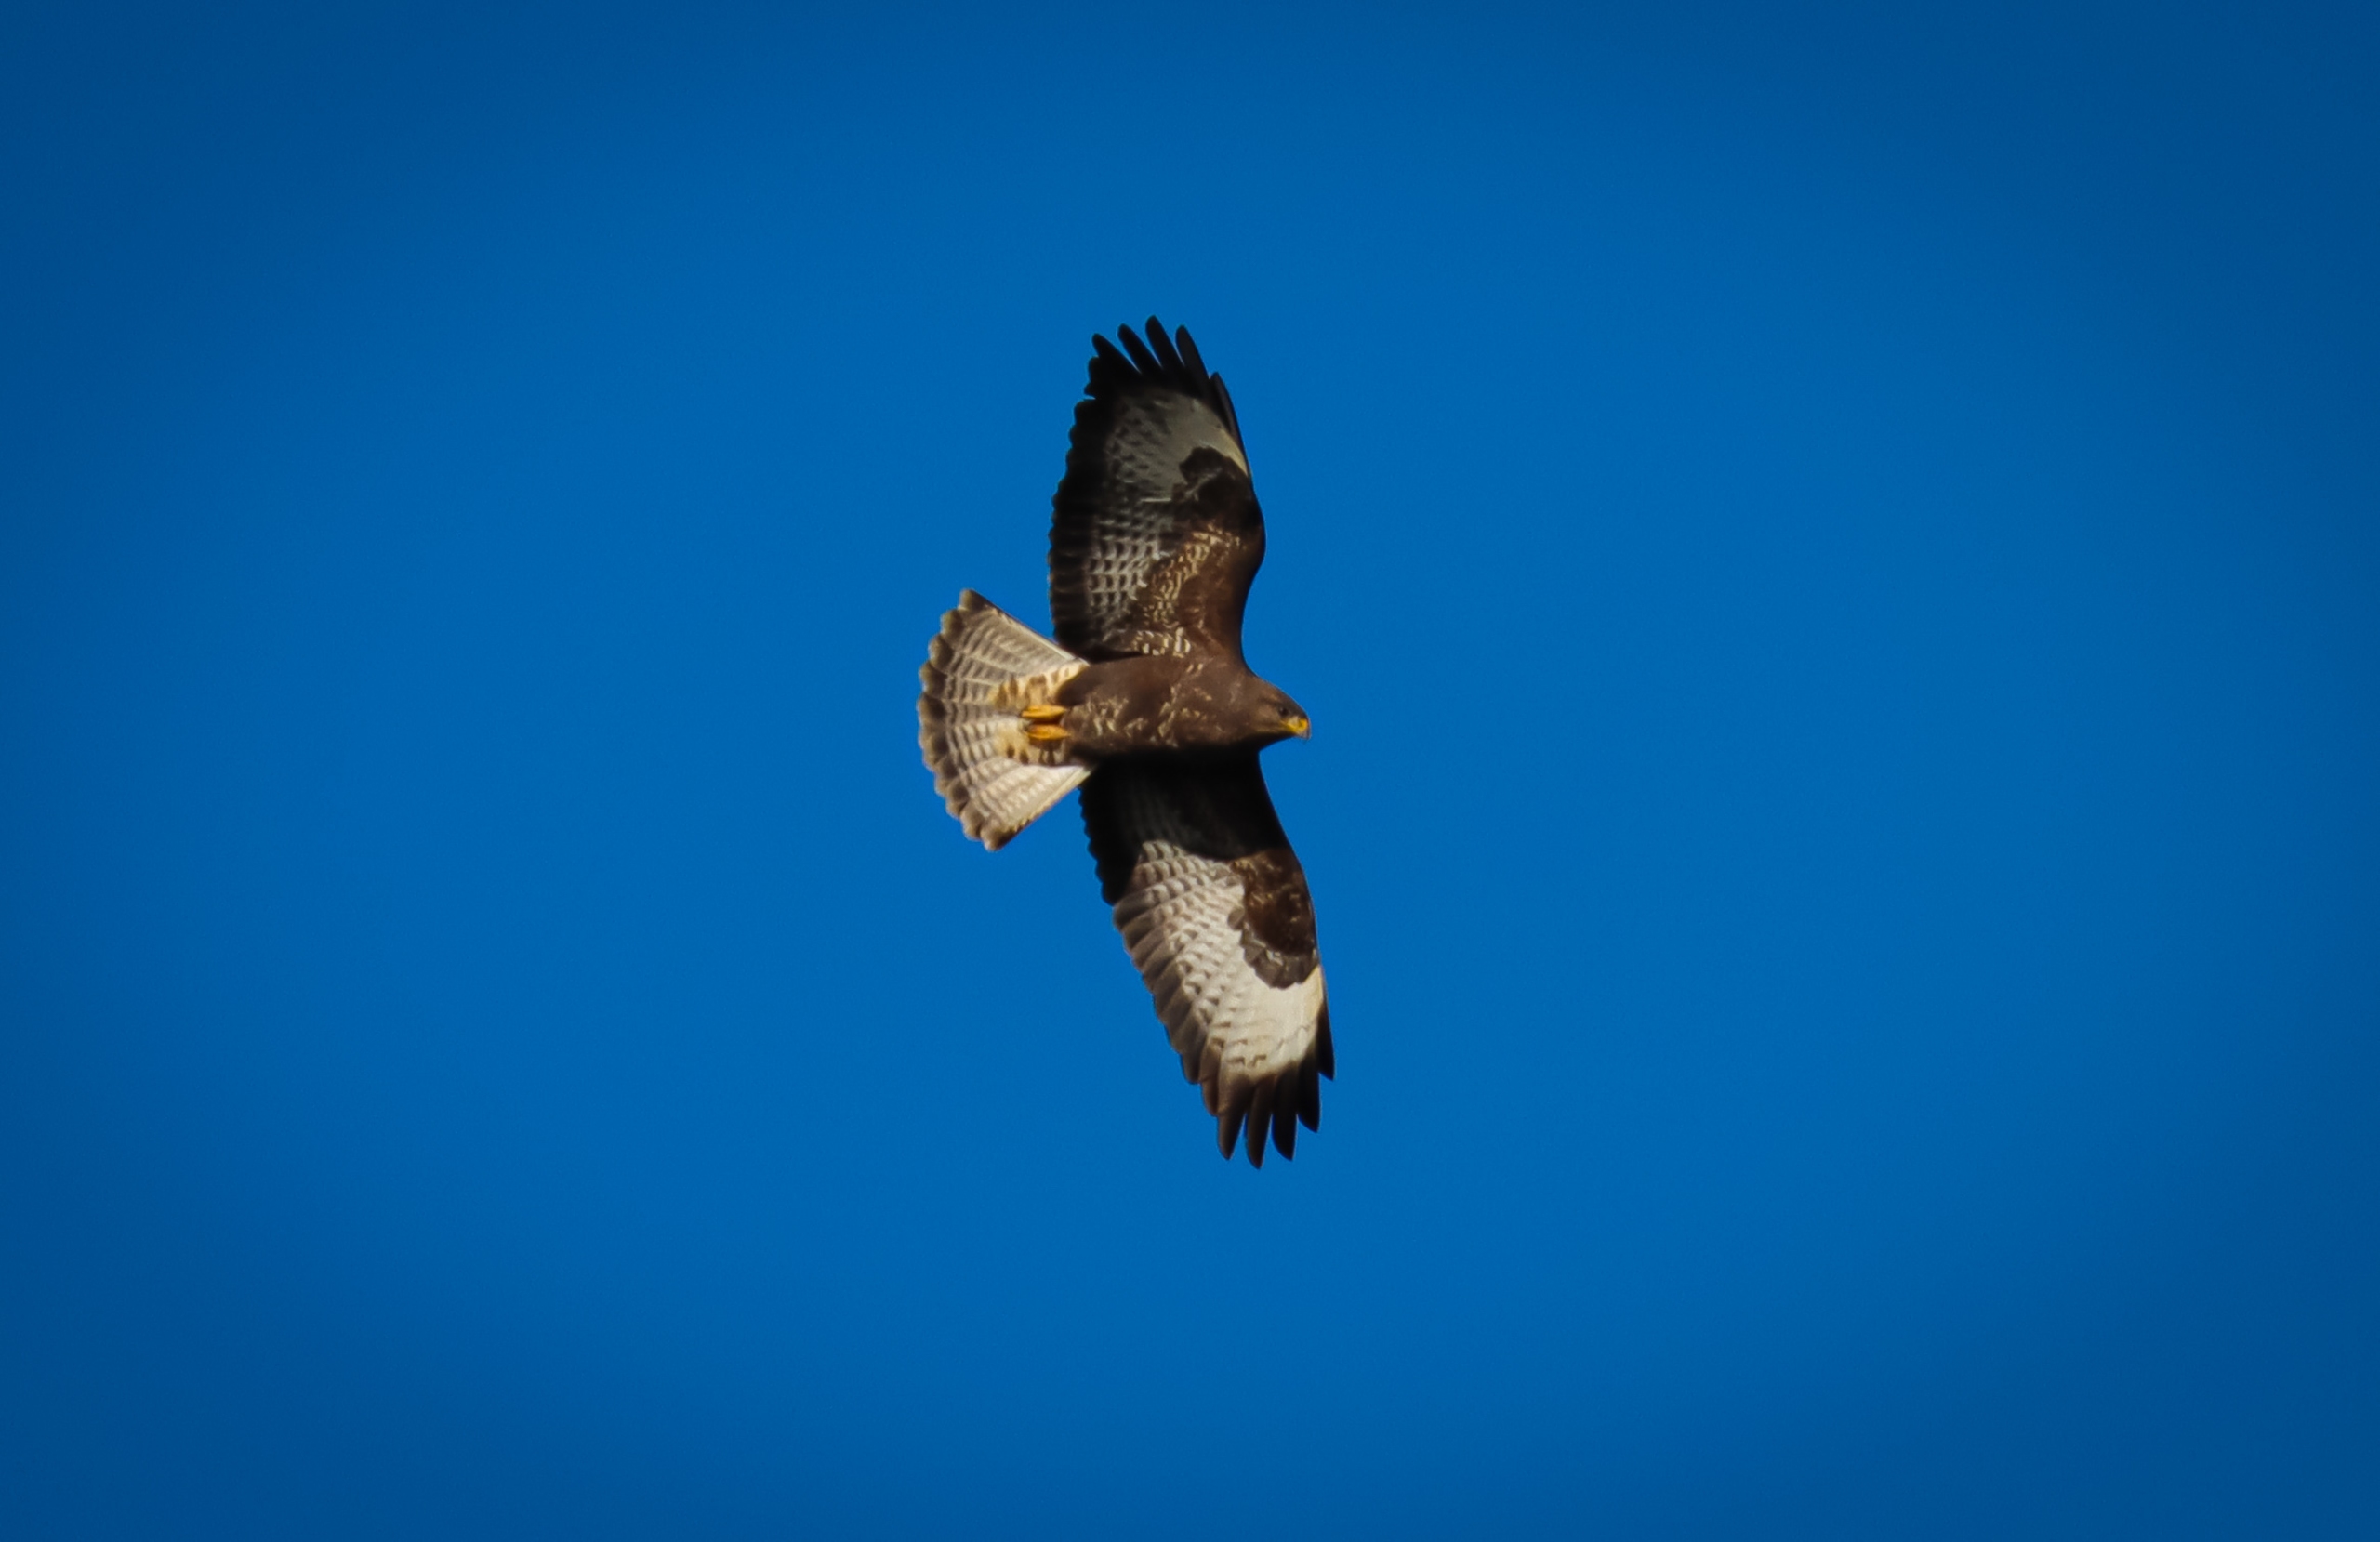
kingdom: Animalia
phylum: Chordata
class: Aves
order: Accipitriformes
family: Accipitridae
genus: Buteo
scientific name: Buteo buteo
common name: Musvåge
